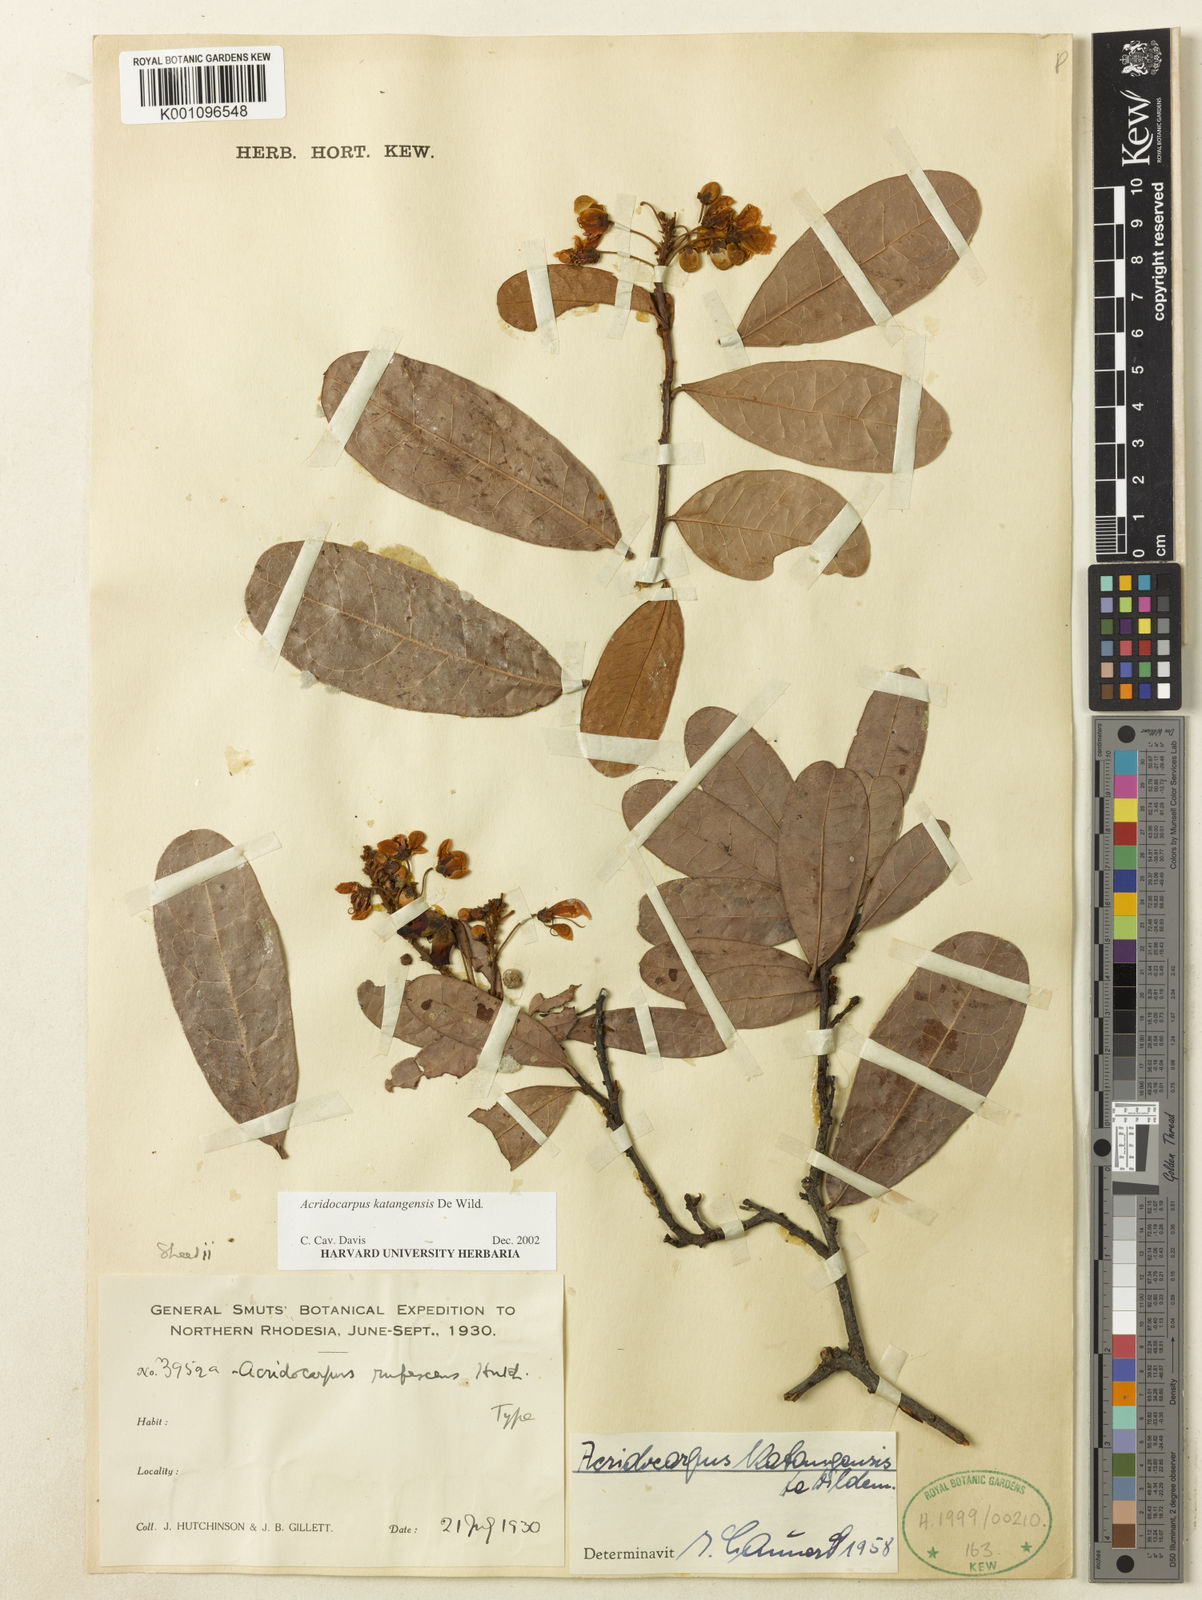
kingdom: Plantae
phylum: Tracheophyta
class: Magnoliopsida
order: Malpighiales
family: Malpighiaceae
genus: Acridocarpus
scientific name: Acridocarpus katangensis
